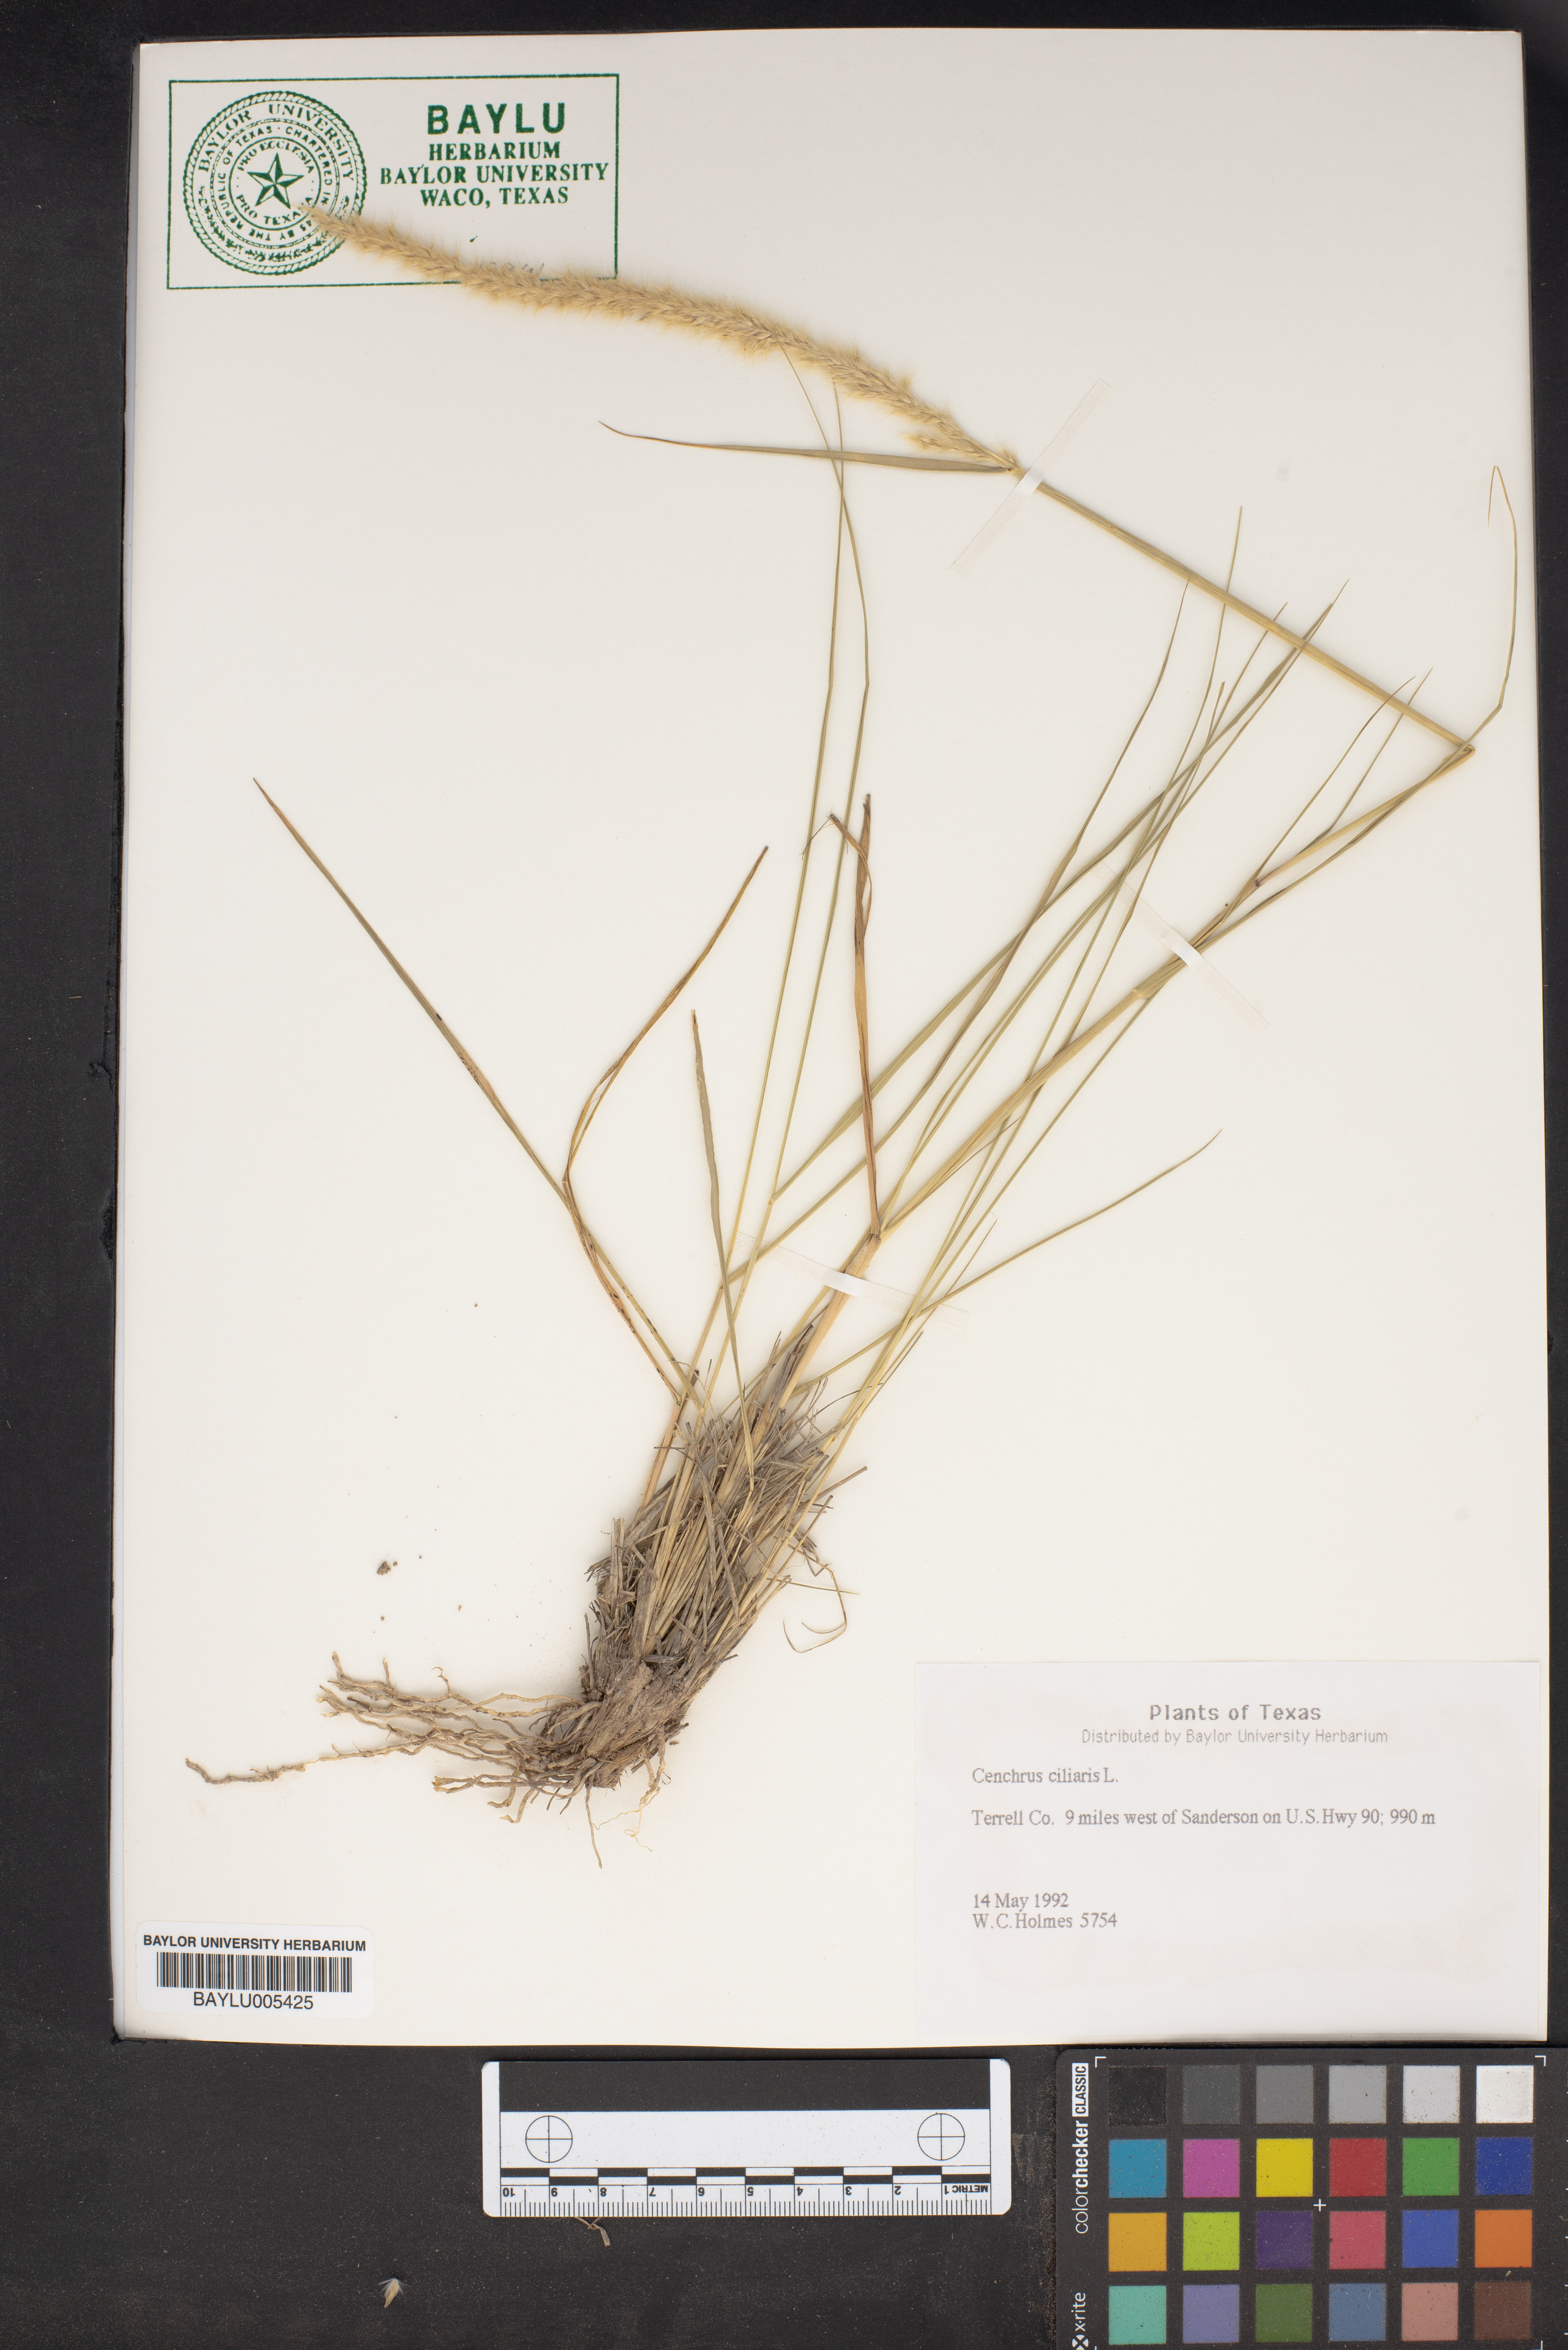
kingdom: Plantae
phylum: Tracheophyta
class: Liliopsida
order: Poales
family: Poaceae
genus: Cenchrus
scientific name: Cenchrus ciliaris
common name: Buffelgrass
